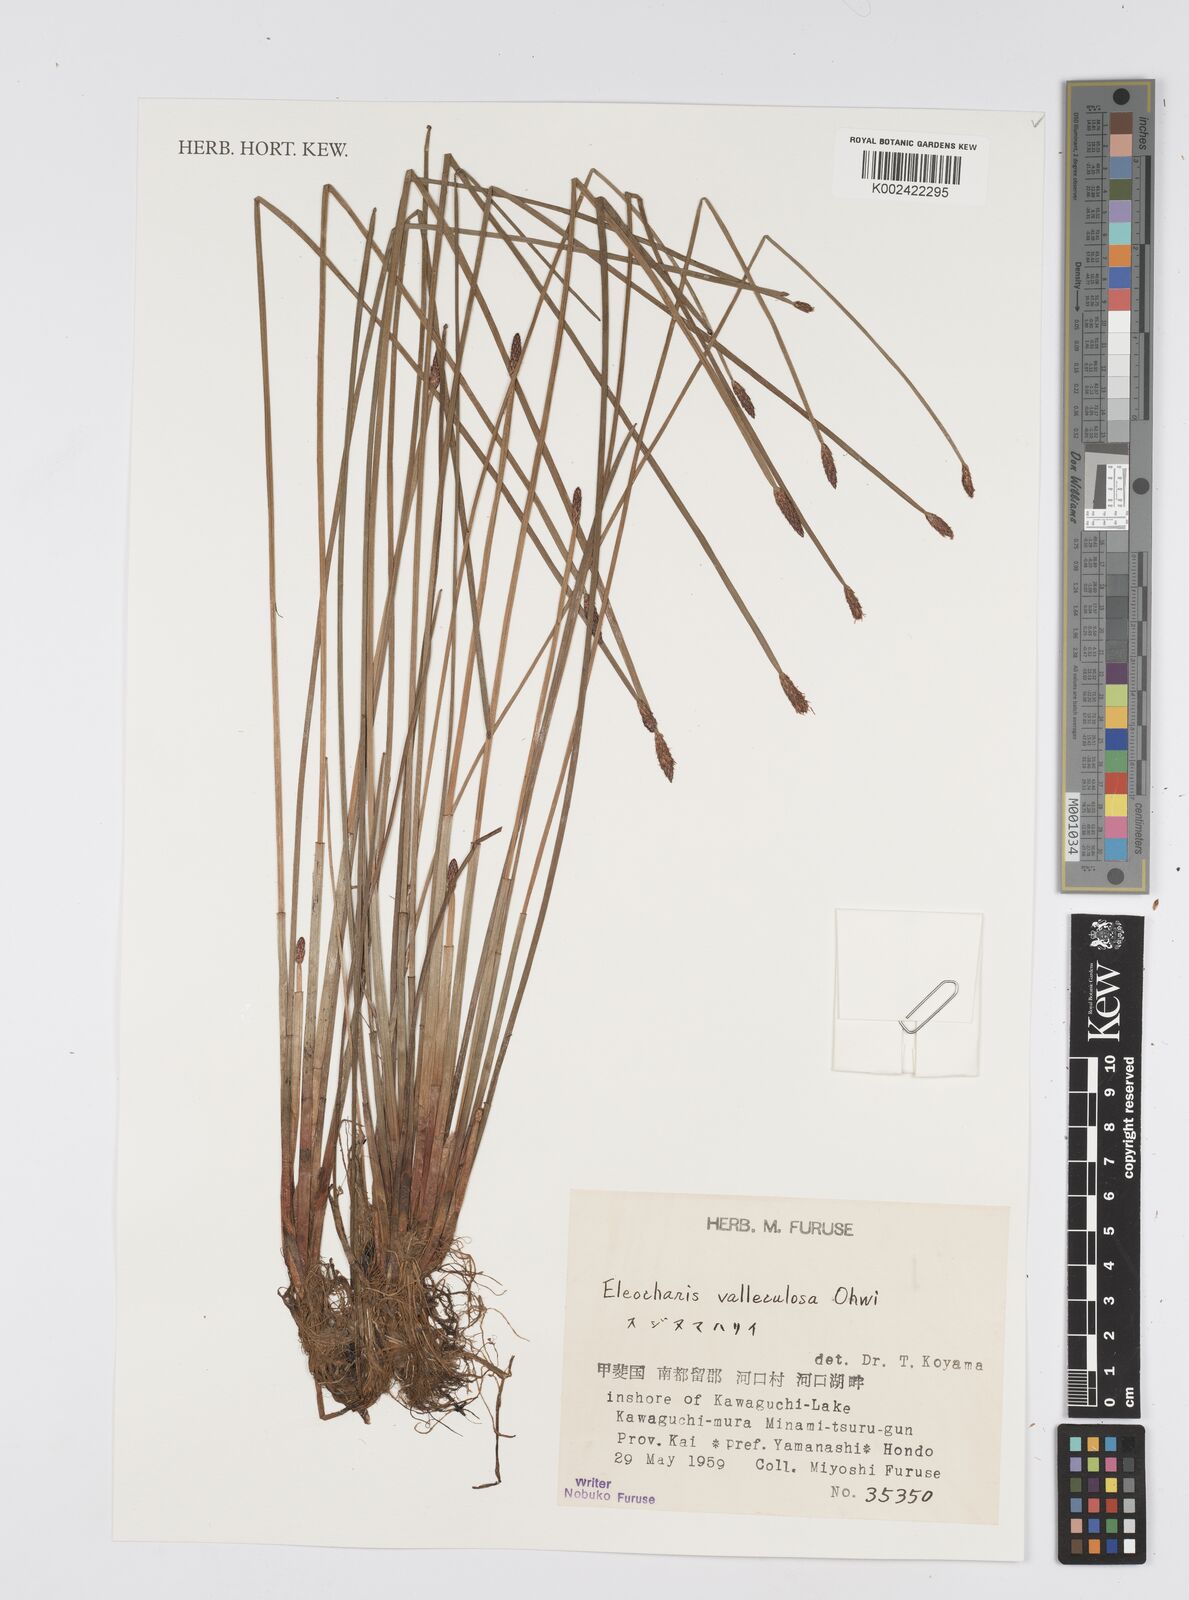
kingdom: Plantae
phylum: Tracheophyta
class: Liliopsida
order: Poales
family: Cyperaceae
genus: Eleocharis
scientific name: Eleocharis valleculosa
